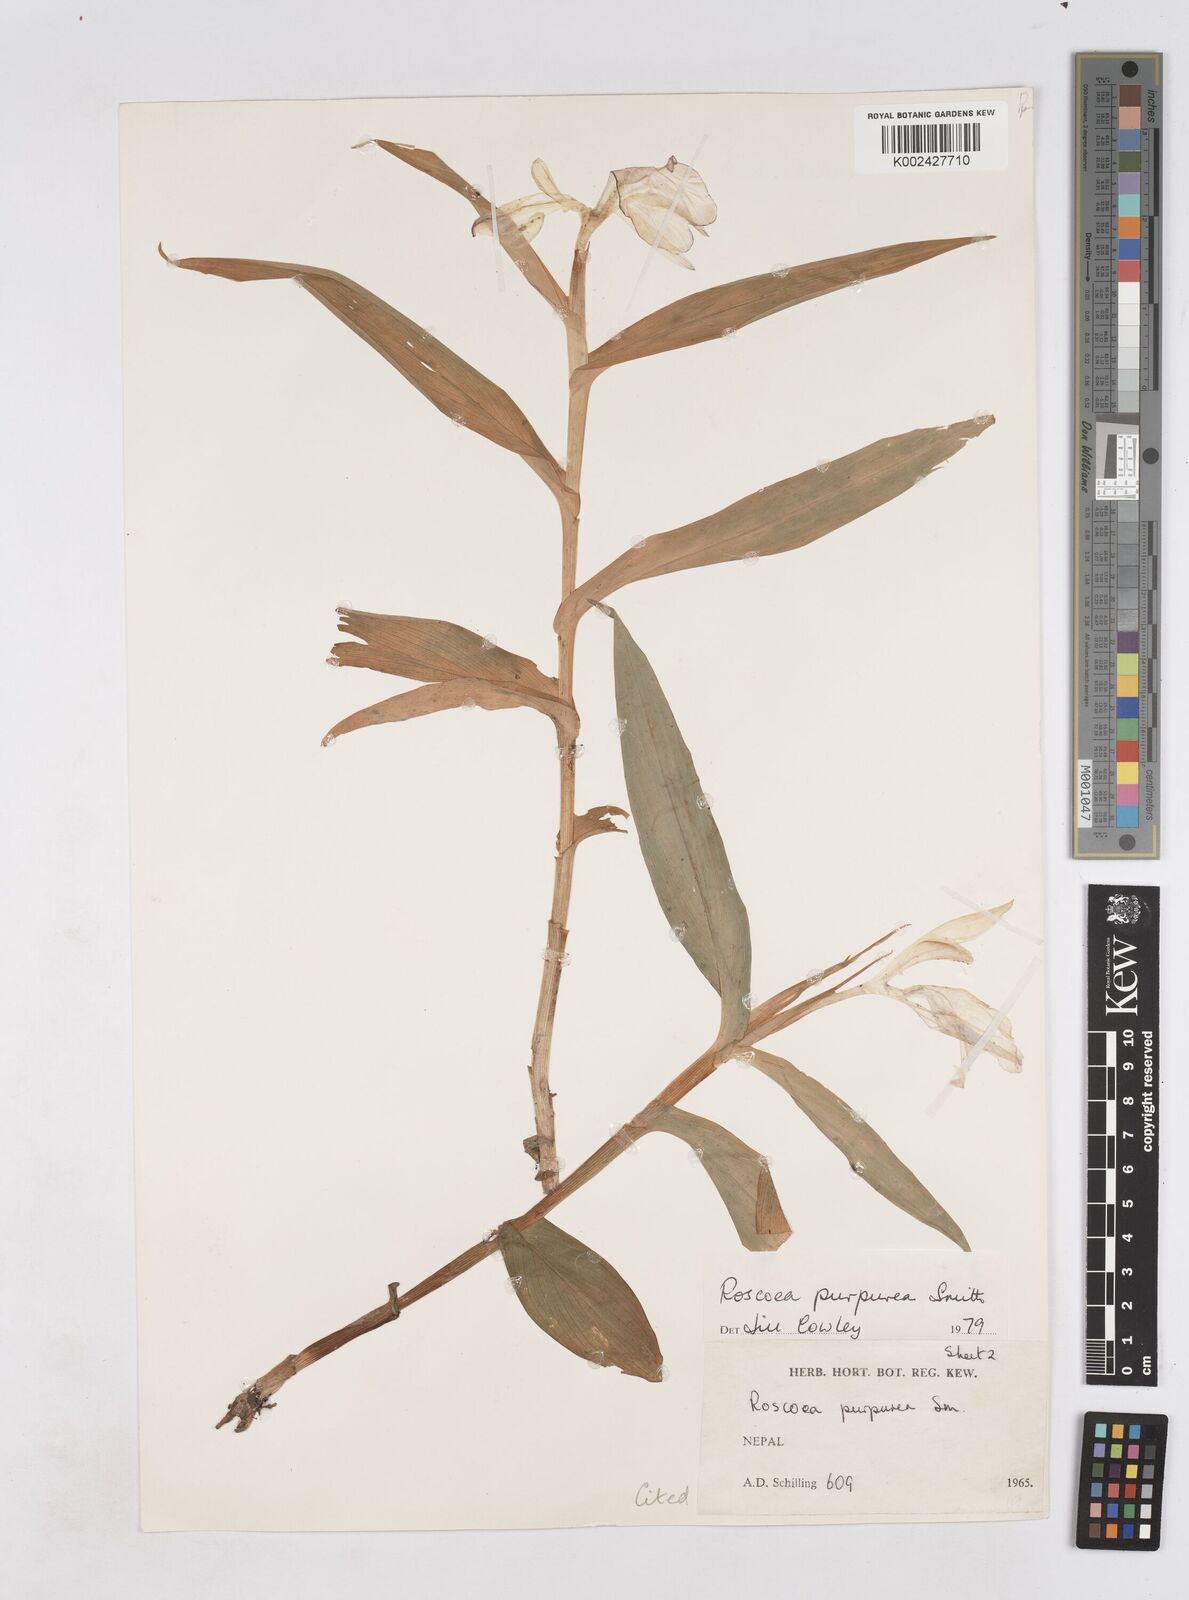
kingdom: Plantae
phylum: Tracheophyta
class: Liliopsida
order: Zingiberales
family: Zingiberaceae
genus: Roscoea
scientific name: Roscoea purpurea
